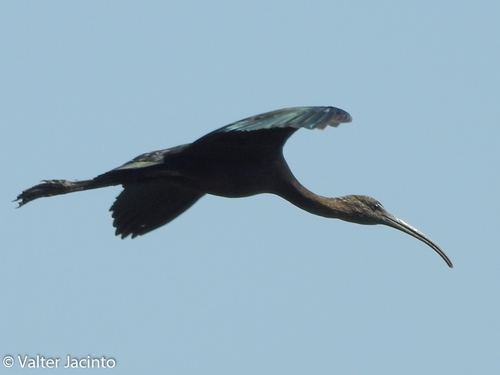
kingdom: Animalia
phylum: Chordata
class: Aves
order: Pelecaniformes
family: Threskiornithidae
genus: Plegadis
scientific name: Plegadis falcinellus
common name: Glossy ibis
